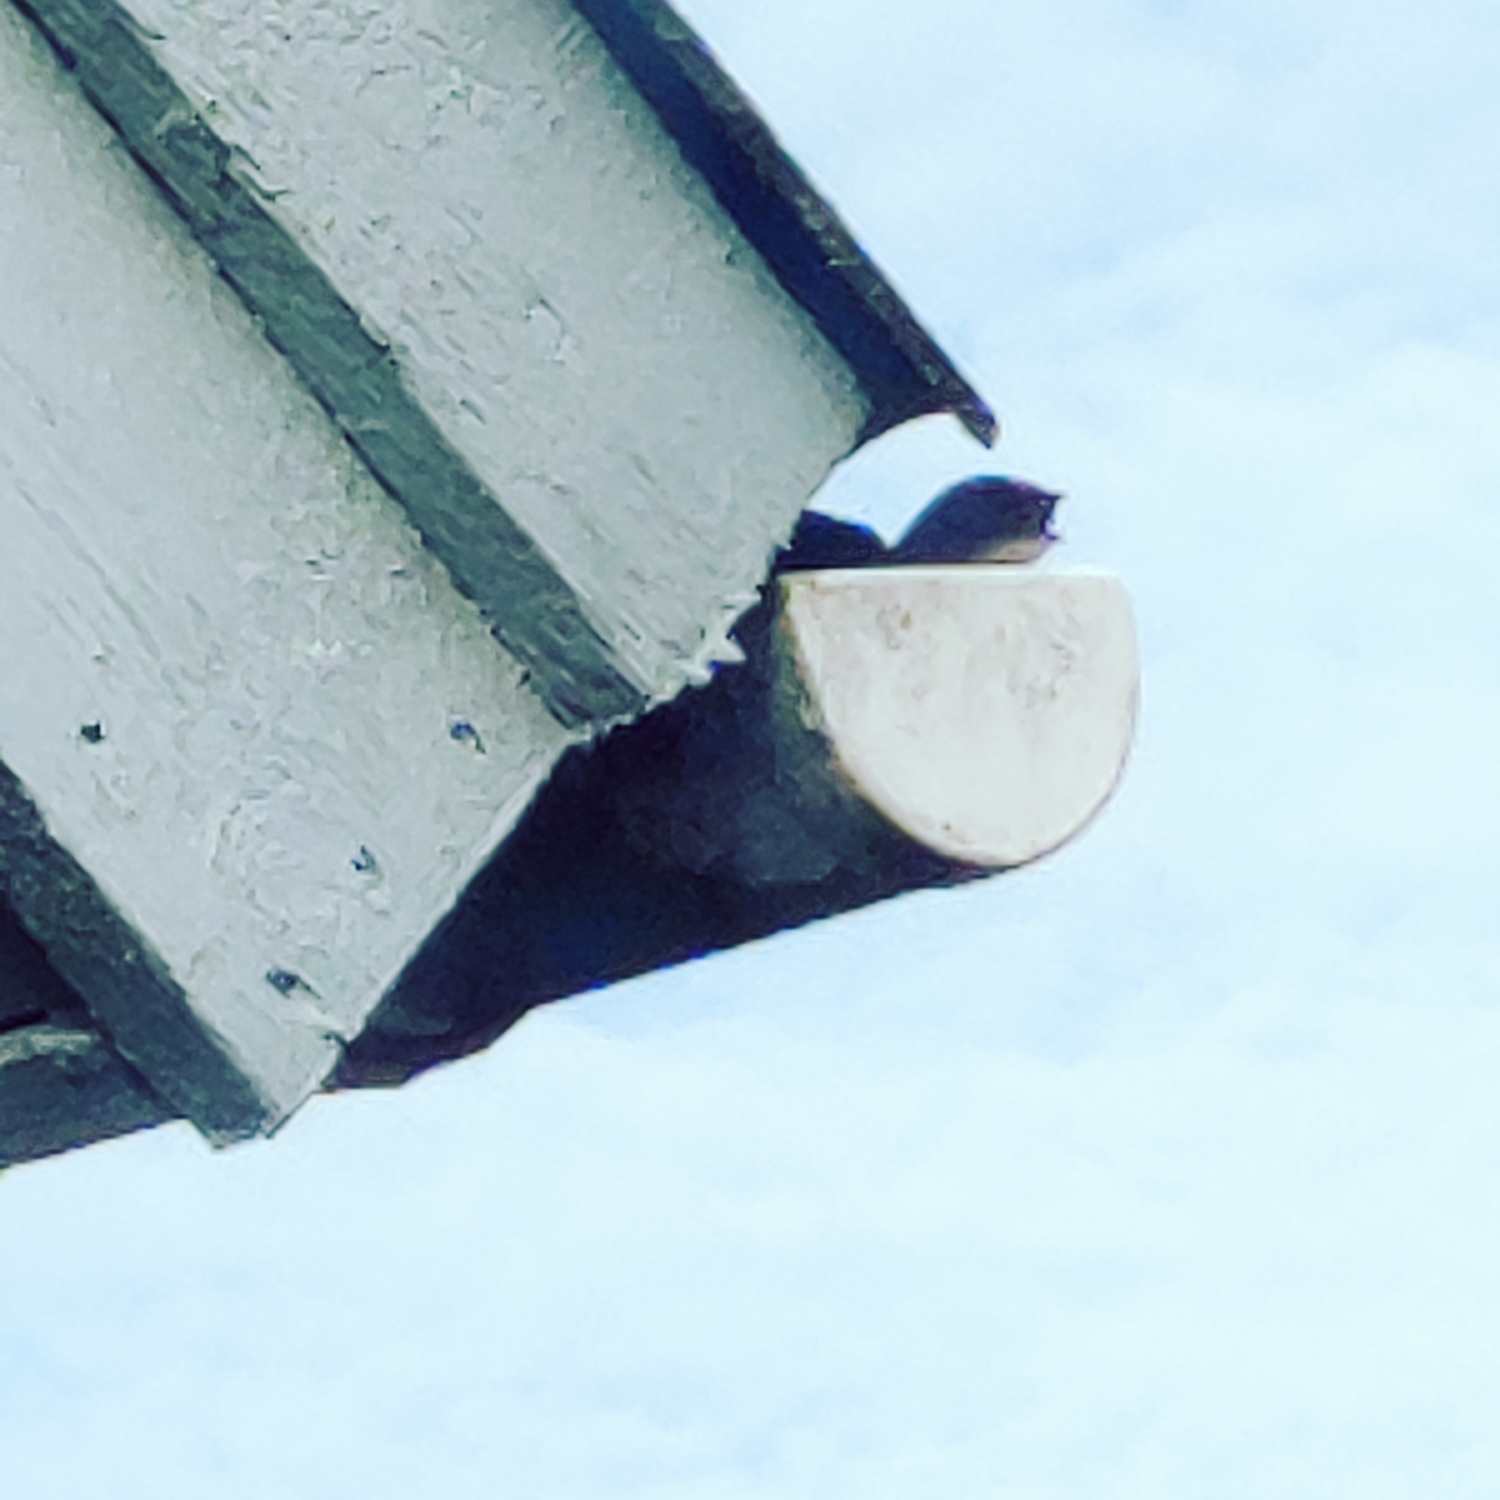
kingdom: Animalia
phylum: Chordata
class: Aves
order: Apodiformes
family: Apodidae
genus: Apus
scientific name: Apus apus
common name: Mursejler
